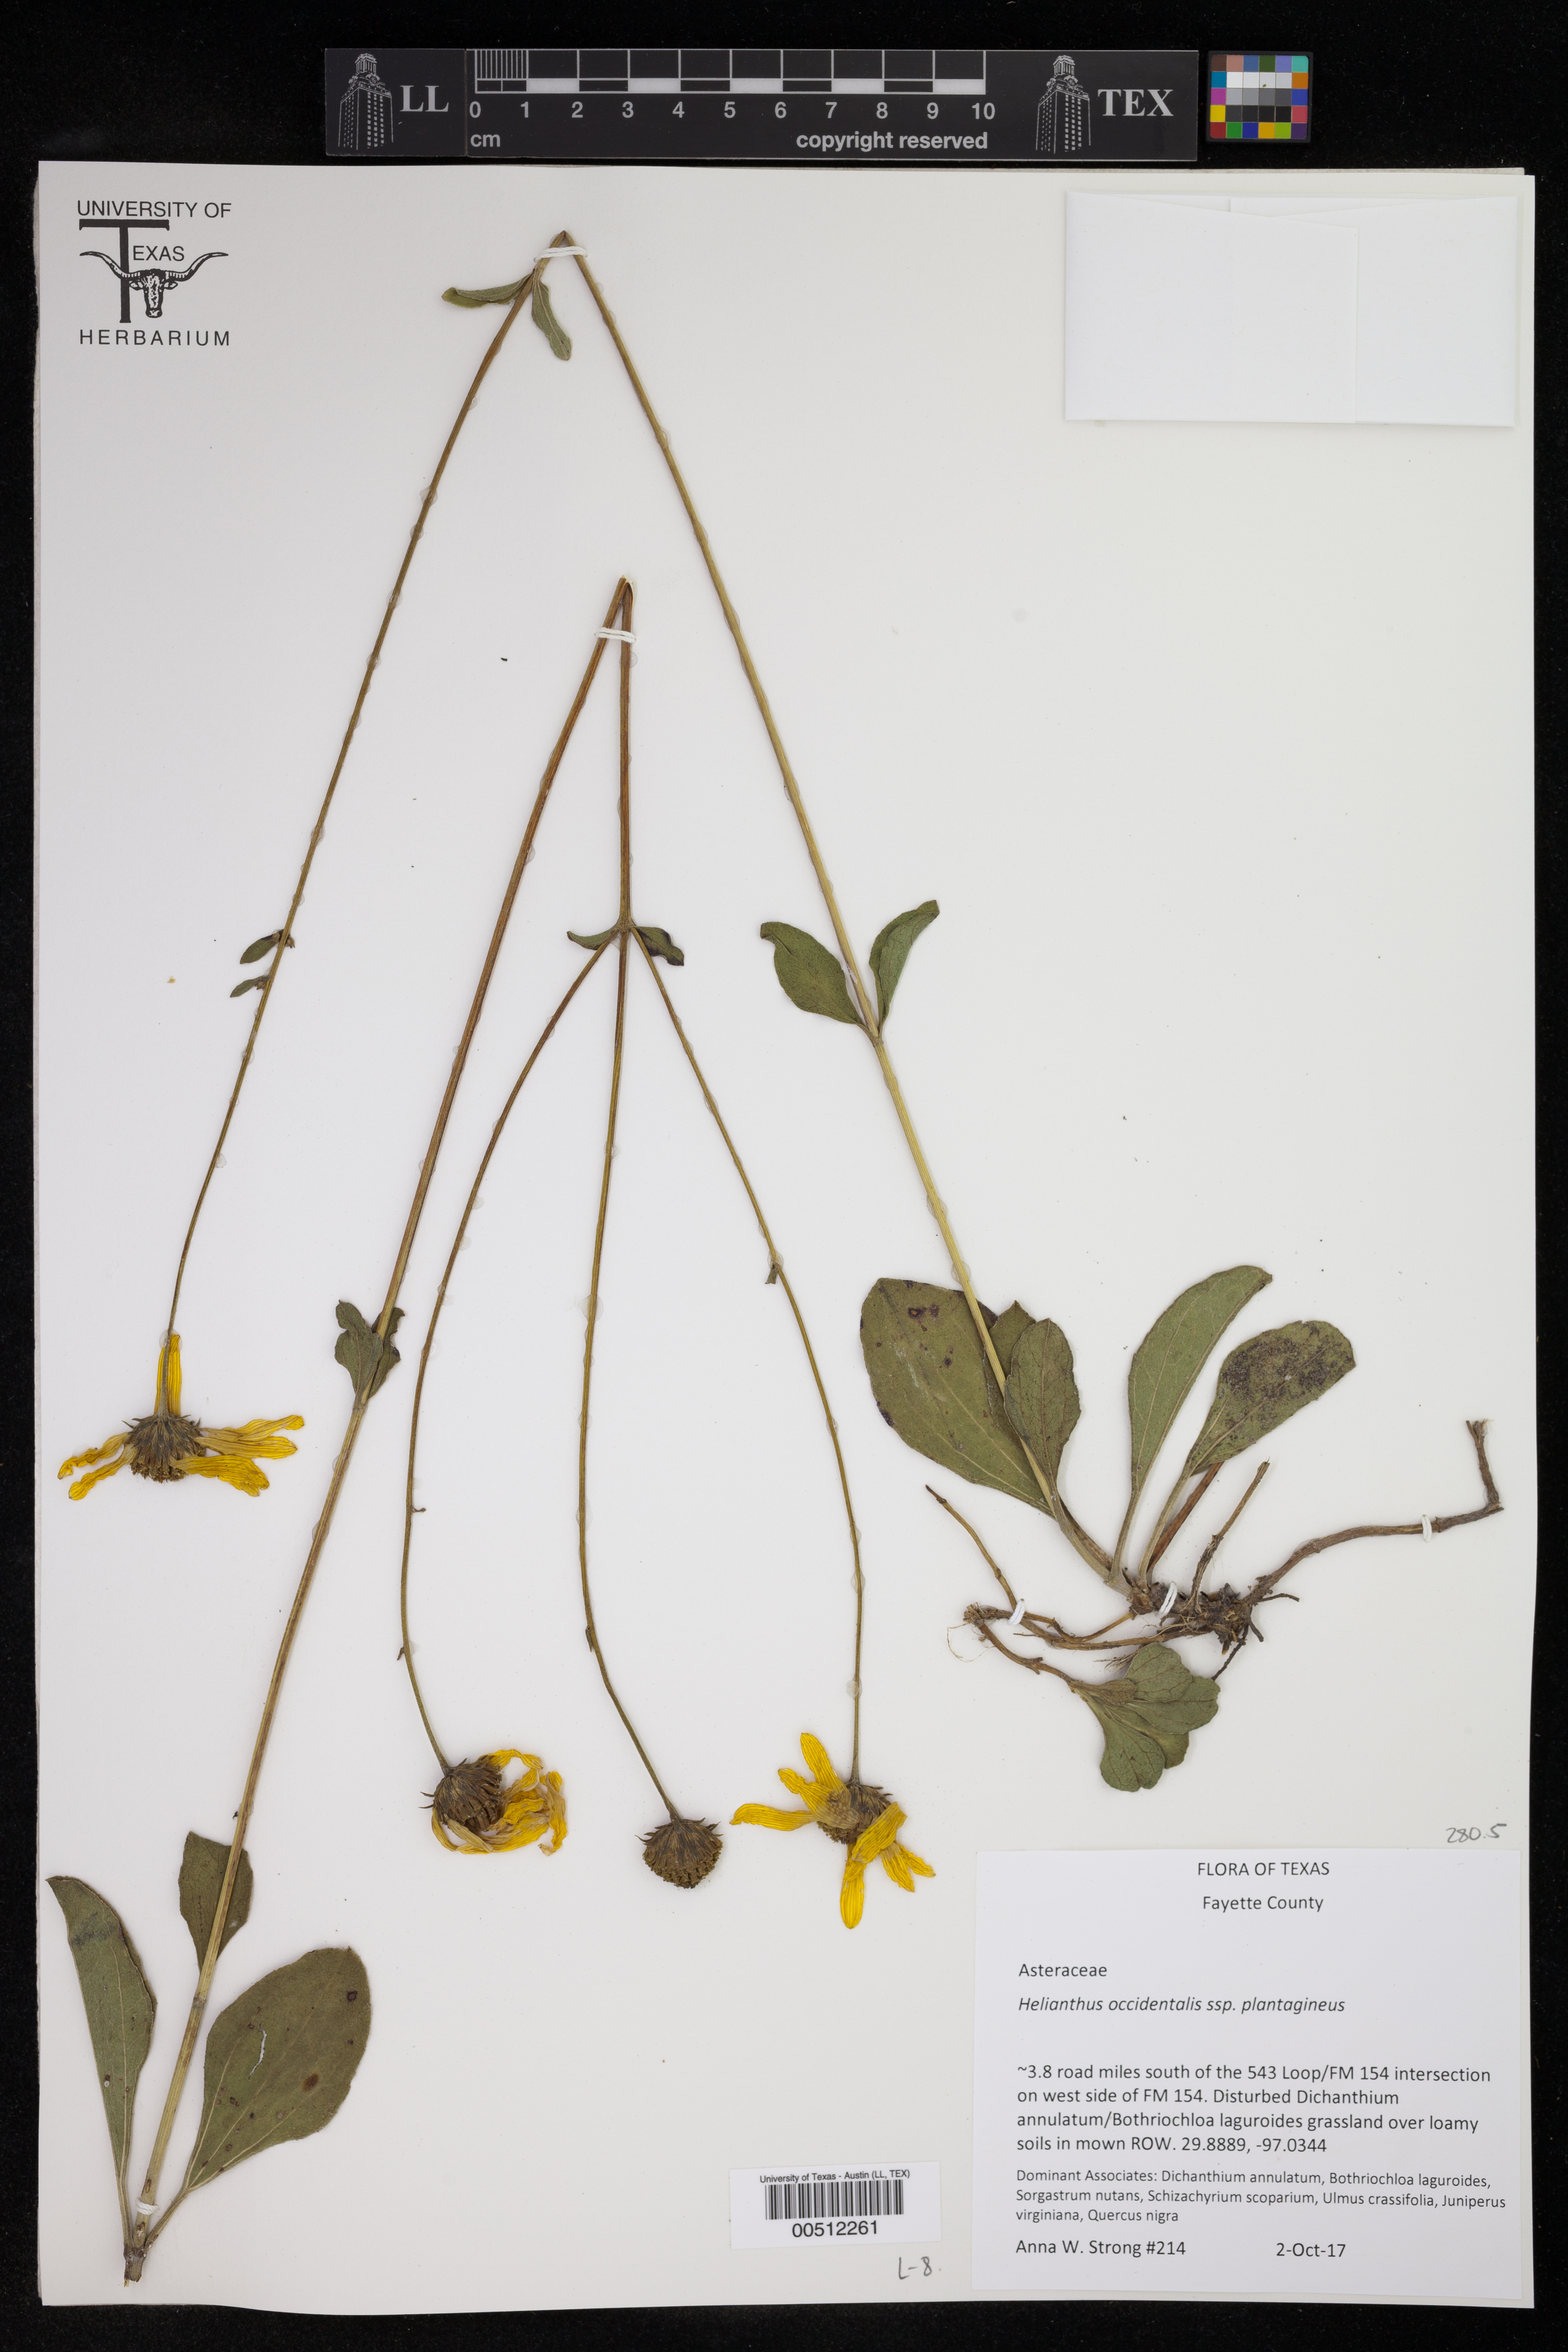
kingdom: Plantae
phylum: Tracheophyta
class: Magnoliopsida
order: Asterales
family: Asteraceae
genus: Helianthus
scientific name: Helianthus occidentalis
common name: Western sunflower
